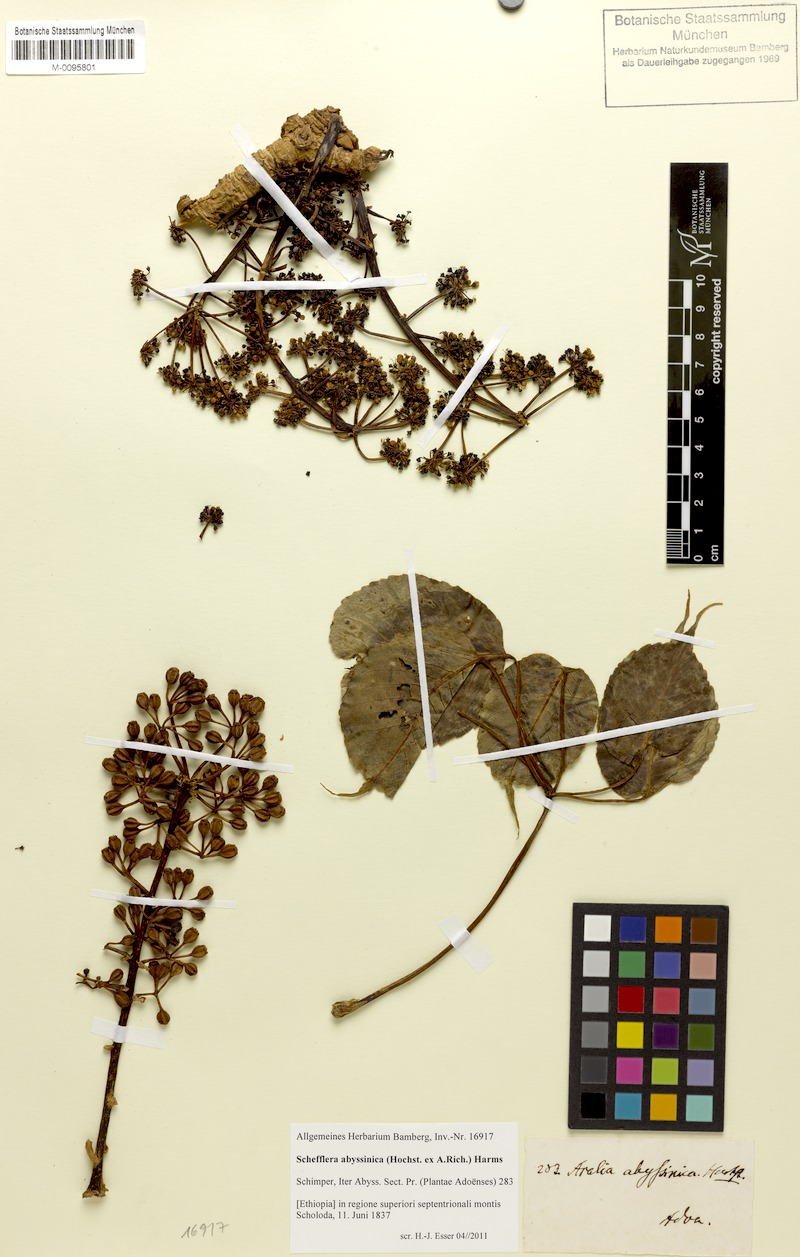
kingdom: Plantae
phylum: Tracheophyta
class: Magnoliopsida
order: Apiales
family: Araliaceae
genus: Astropanax
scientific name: Astropanax abyssinicum
